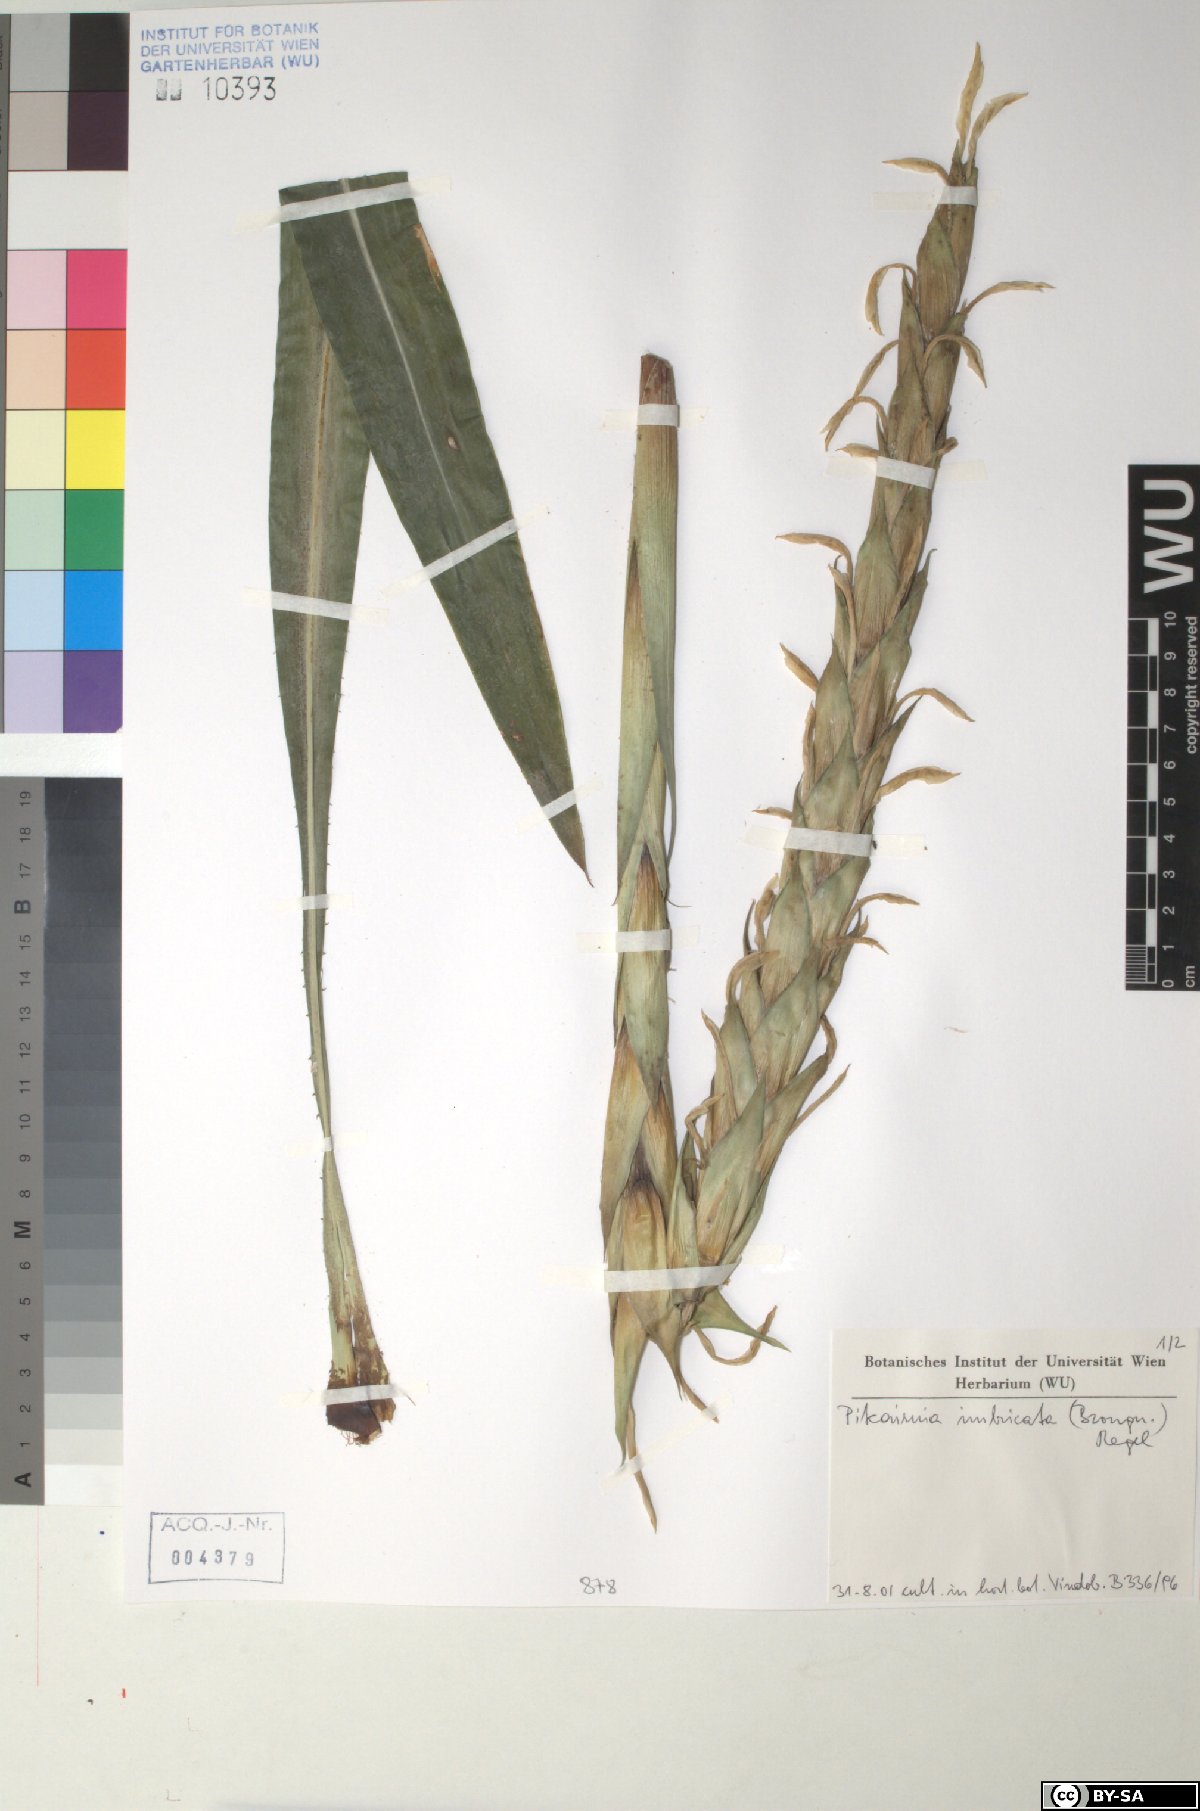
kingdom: Plantae
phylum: Tracheophyta
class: Liliopsida
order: Poales
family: Bromeliaceae
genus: Pitcairnia
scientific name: Pitcairnia imbricata
